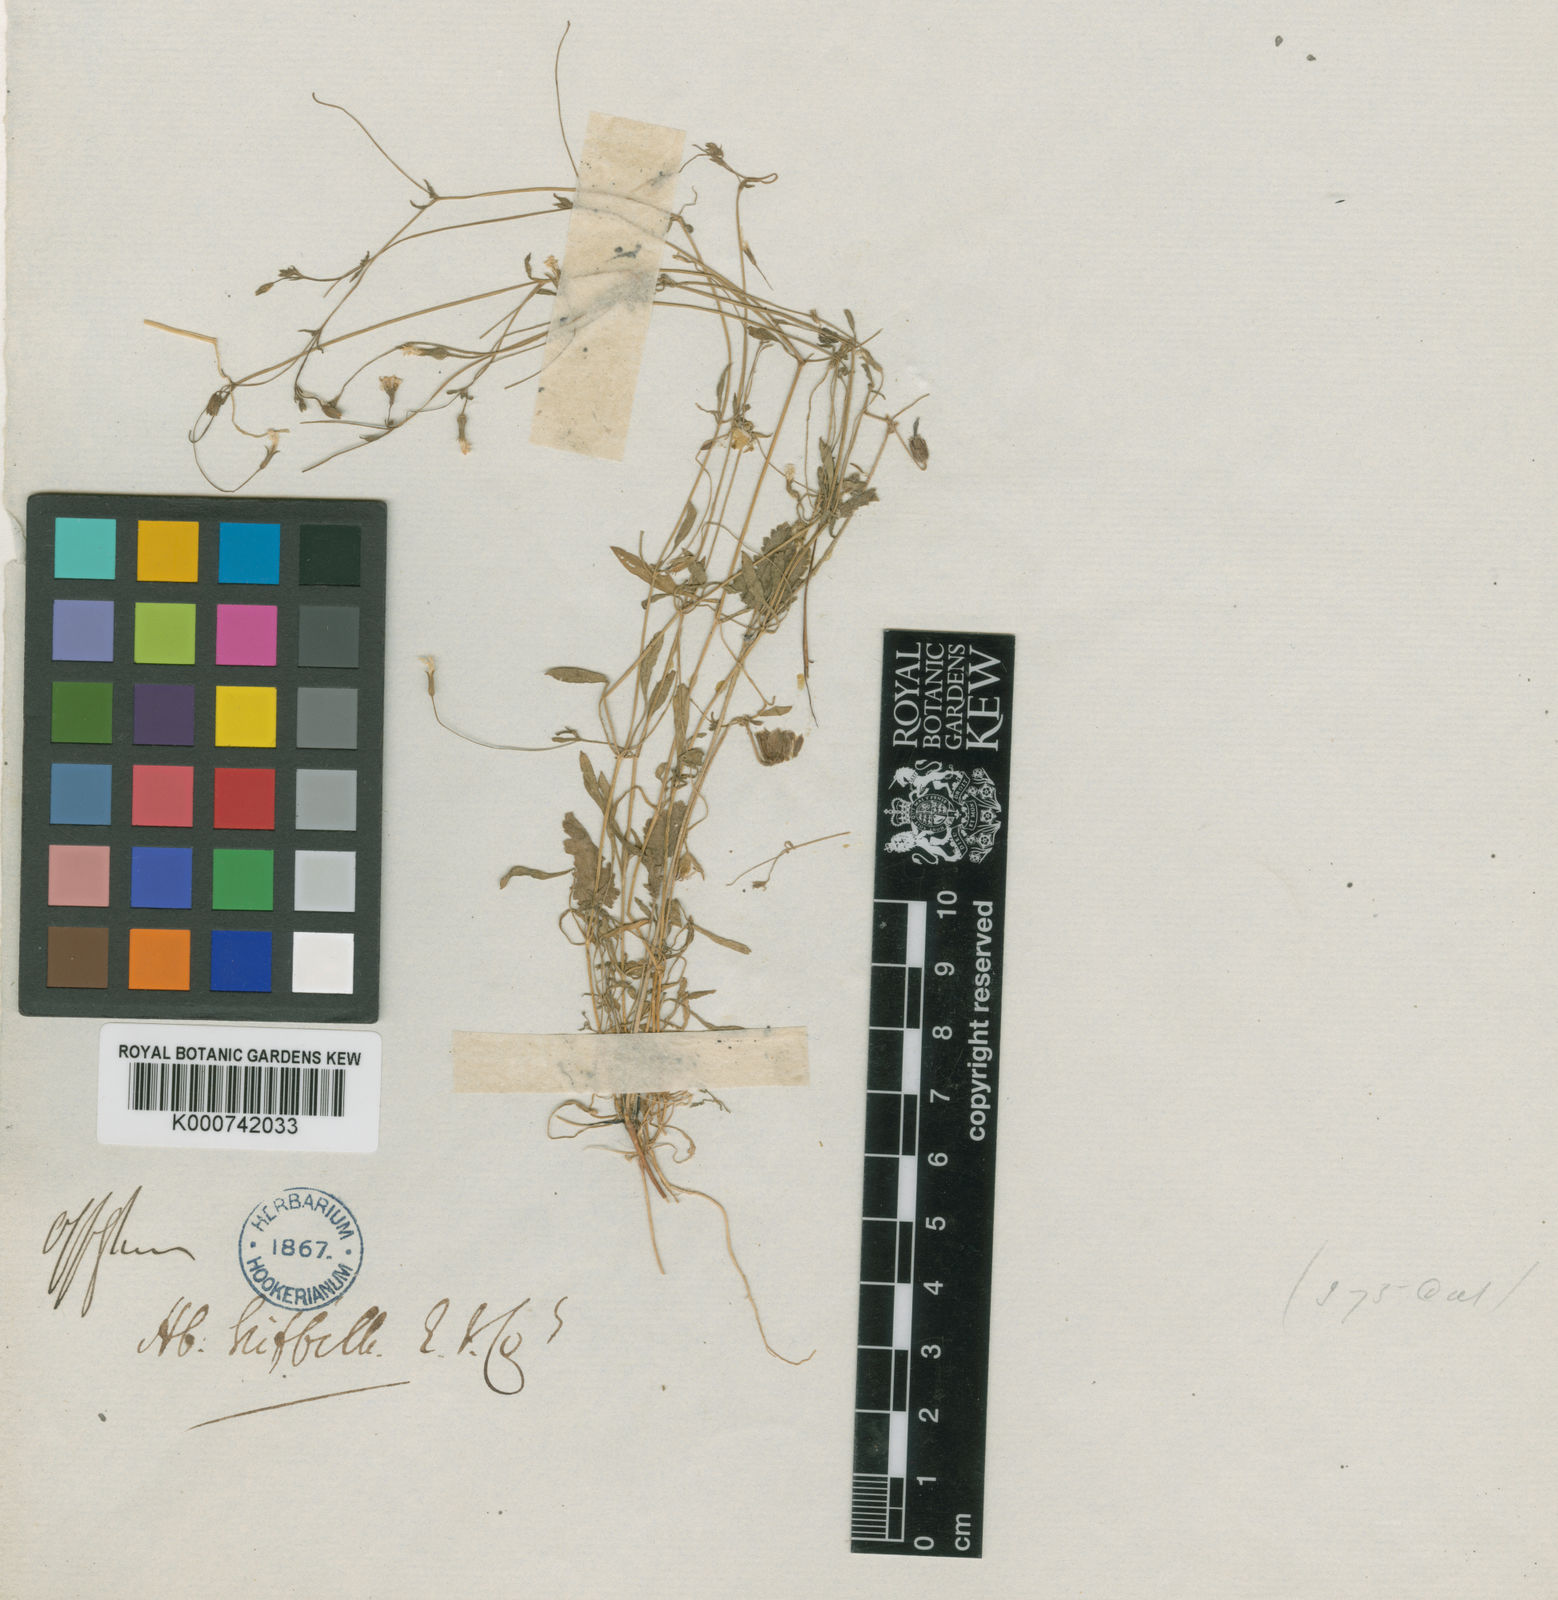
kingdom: Plantae
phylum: Tracheophyta
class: Magnoliopsida
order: Caryophyllales
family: Caryophyllaceae
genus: Lepyrodiclis
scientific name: Lepyrodiclis tenera
